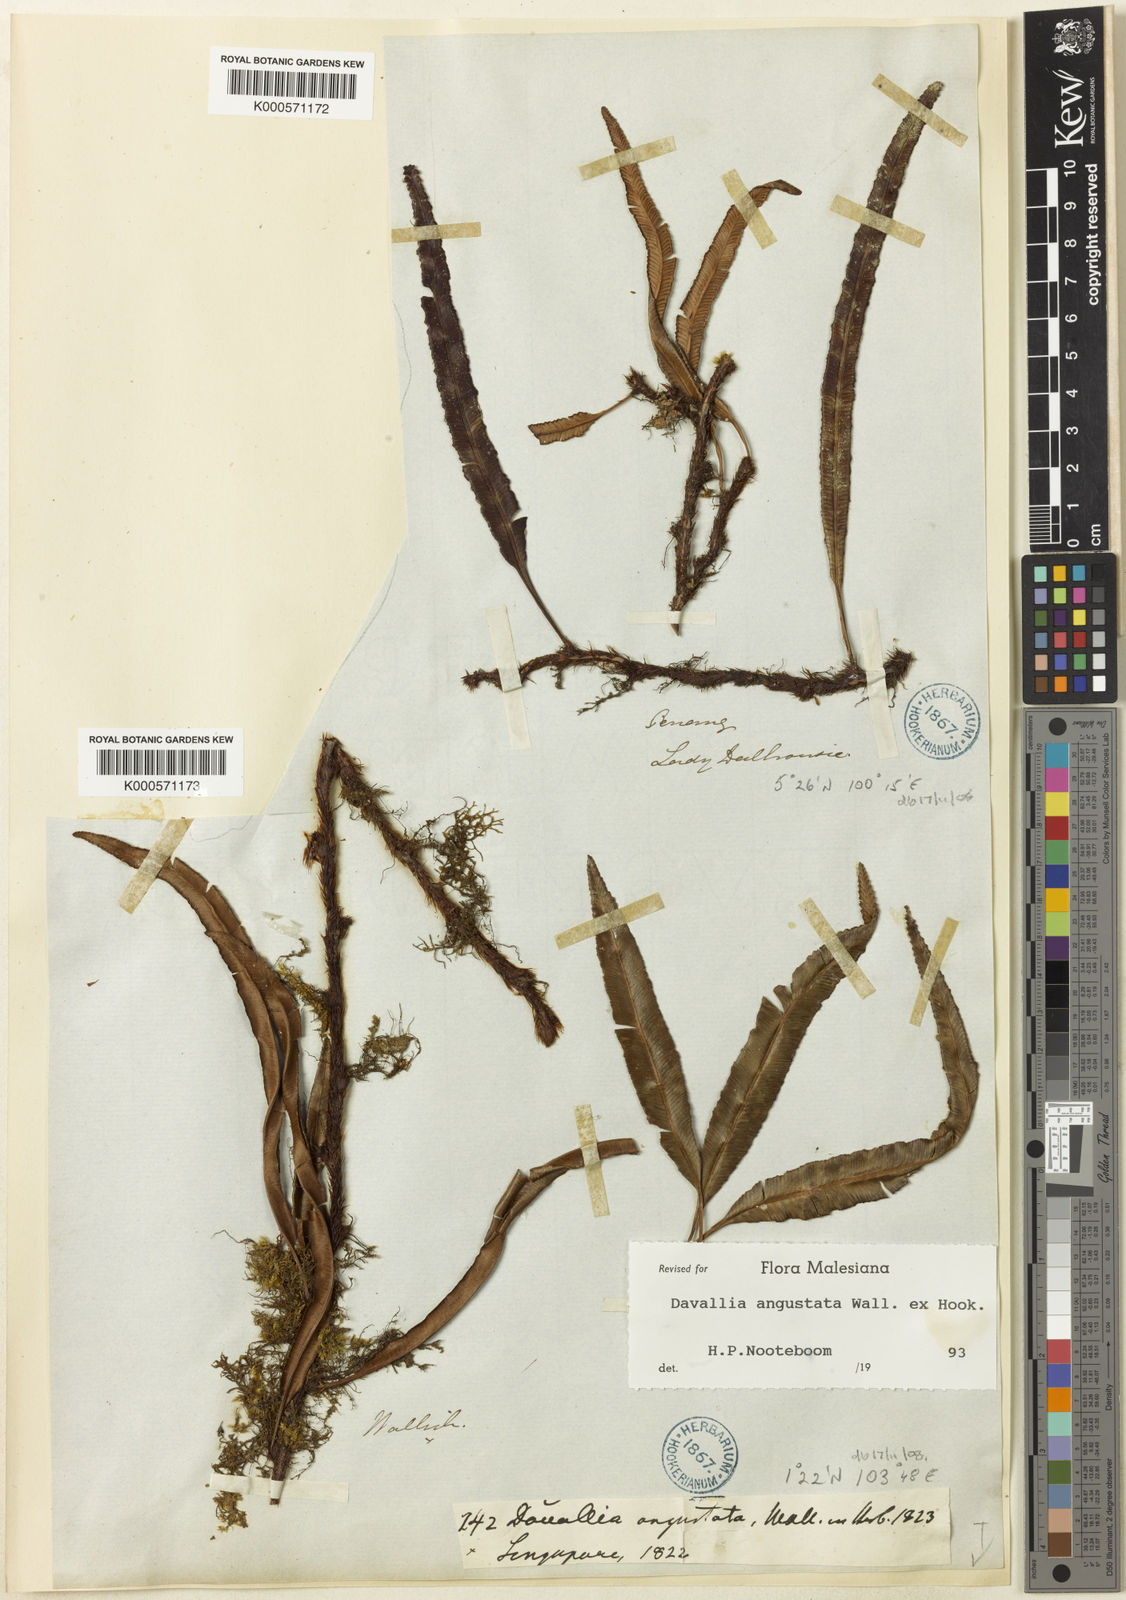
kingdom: Plantae
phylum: Tracheophyta
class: Polypodiopsida
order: Polypodiales
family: Davalliaceae
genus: Davallia
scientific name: Davallia angustata
